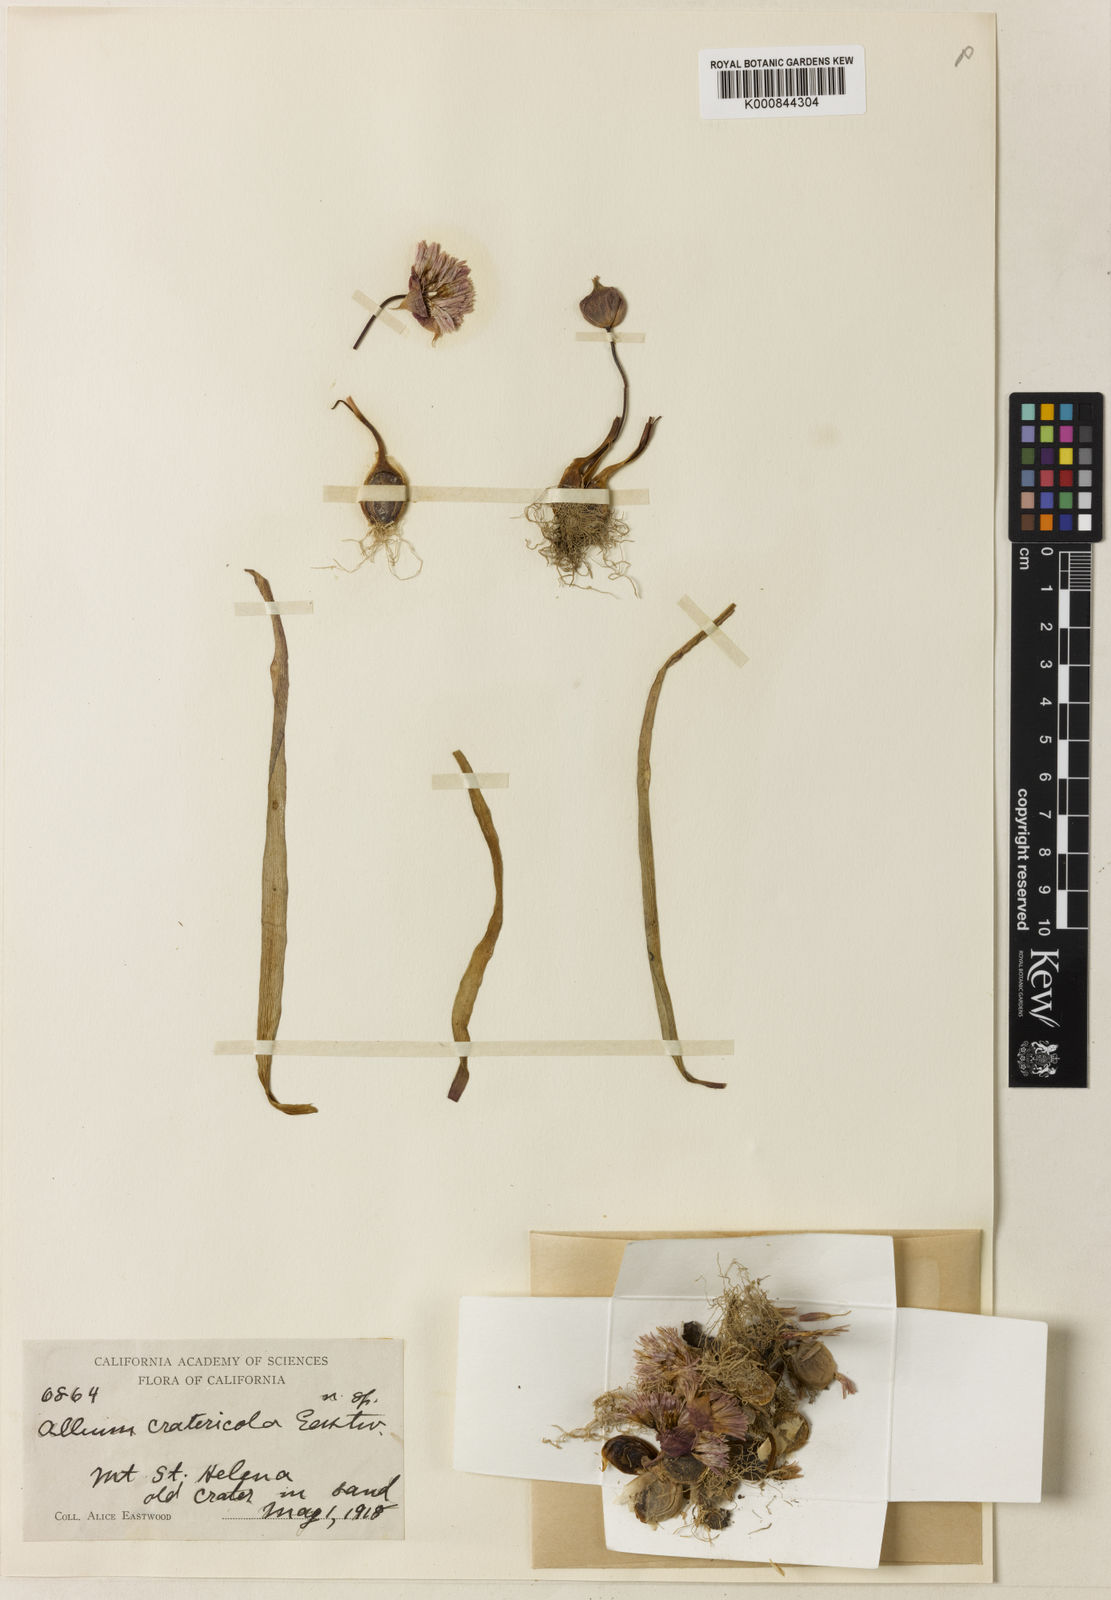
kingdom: Plantae
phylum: Tracheophyta
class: Liliopsida
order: Asparagales
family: Amaryllidaceae
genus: Allium
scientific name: Allium cratericola
